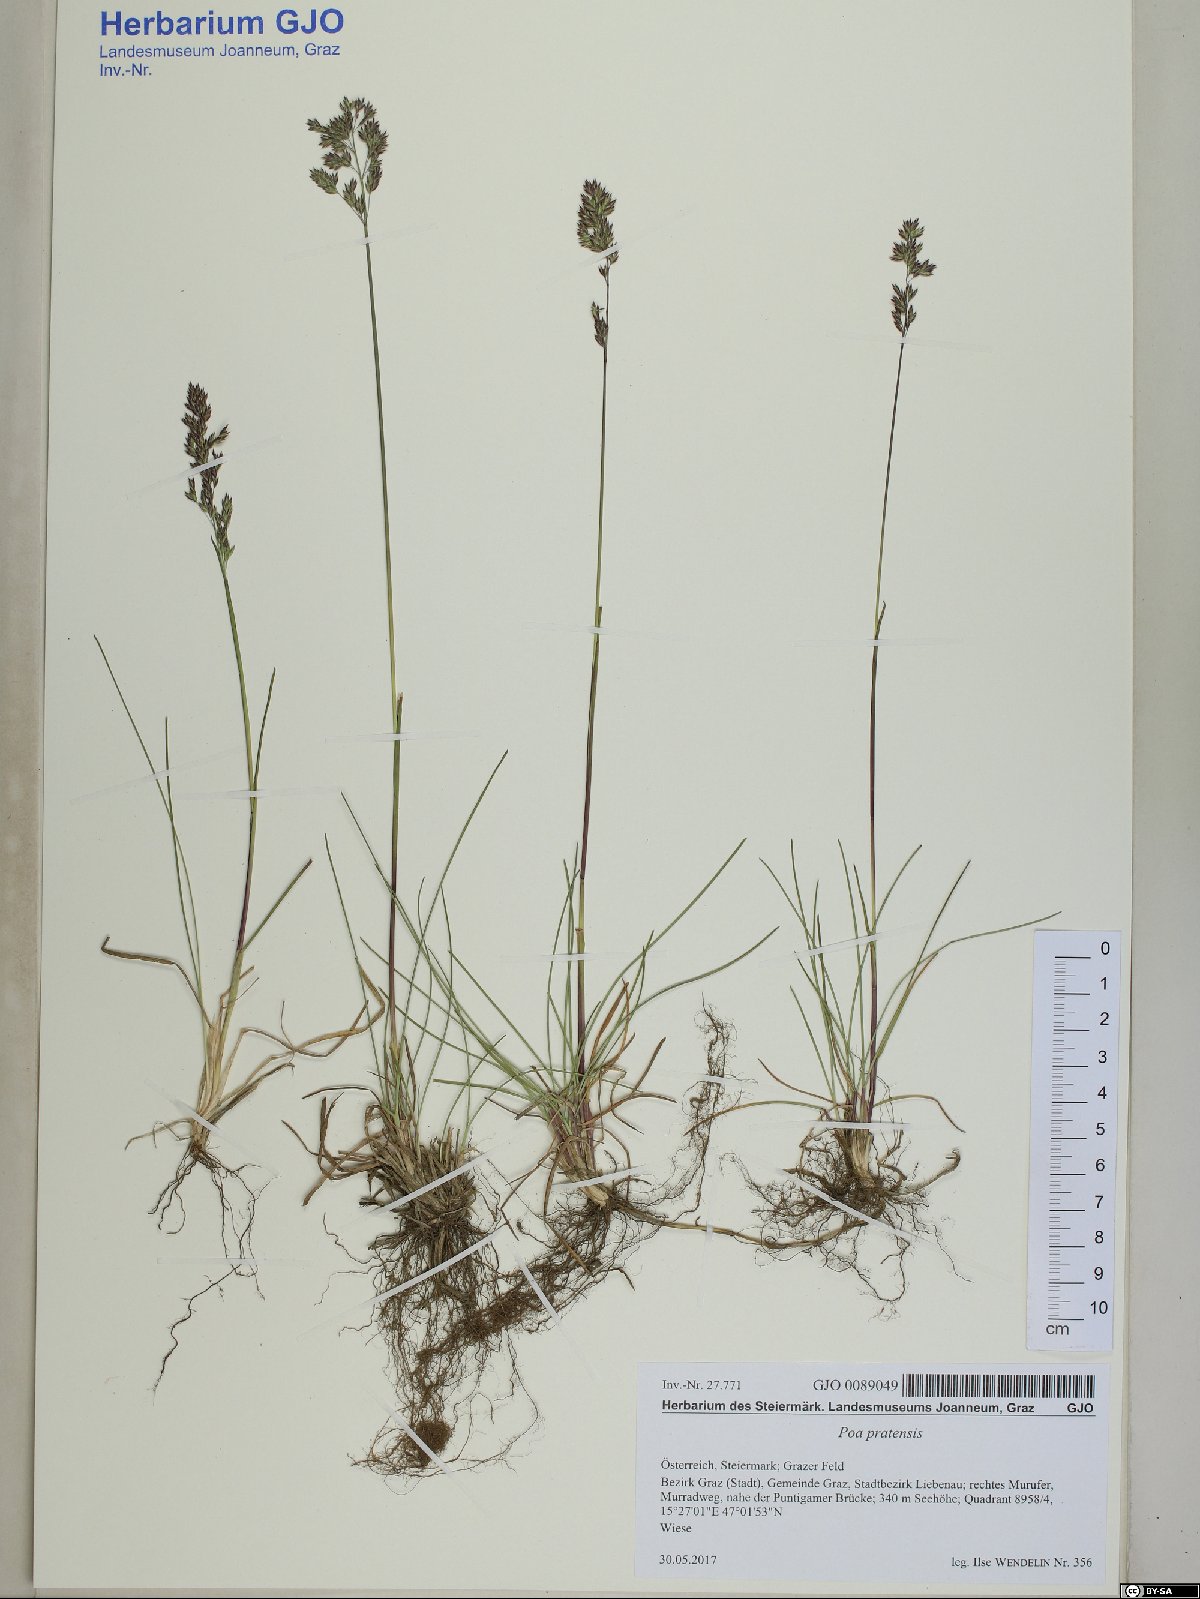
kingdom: Plantae
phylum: Tracheophyta
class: Liliopsida
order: Poales
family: Poaceae
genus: Poa
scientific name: Poa pratensis
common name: Kentucky bluegrass
